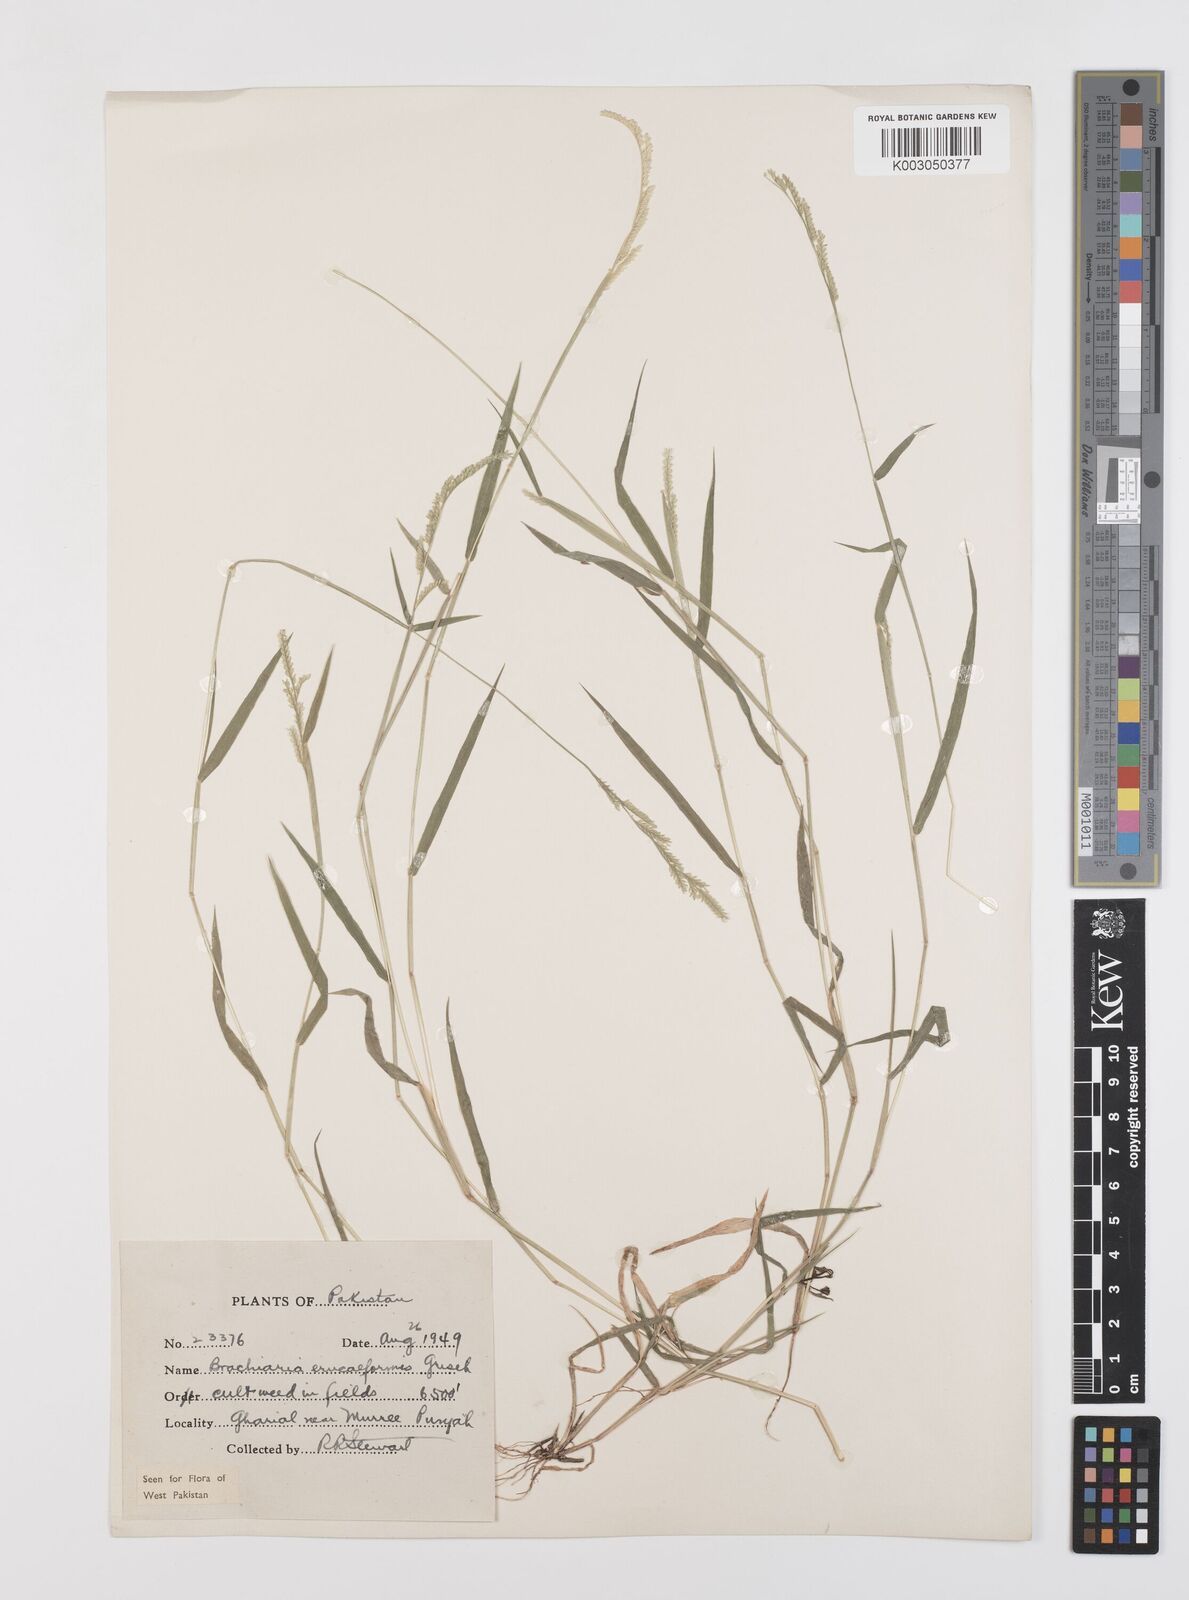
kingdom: Plantae
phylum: Tracheophyta
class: Liliopsida
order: Poales
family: Poaceae
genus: Moorochloa
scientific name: Moorochloa eruciformis
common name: Sweet signalgrass
